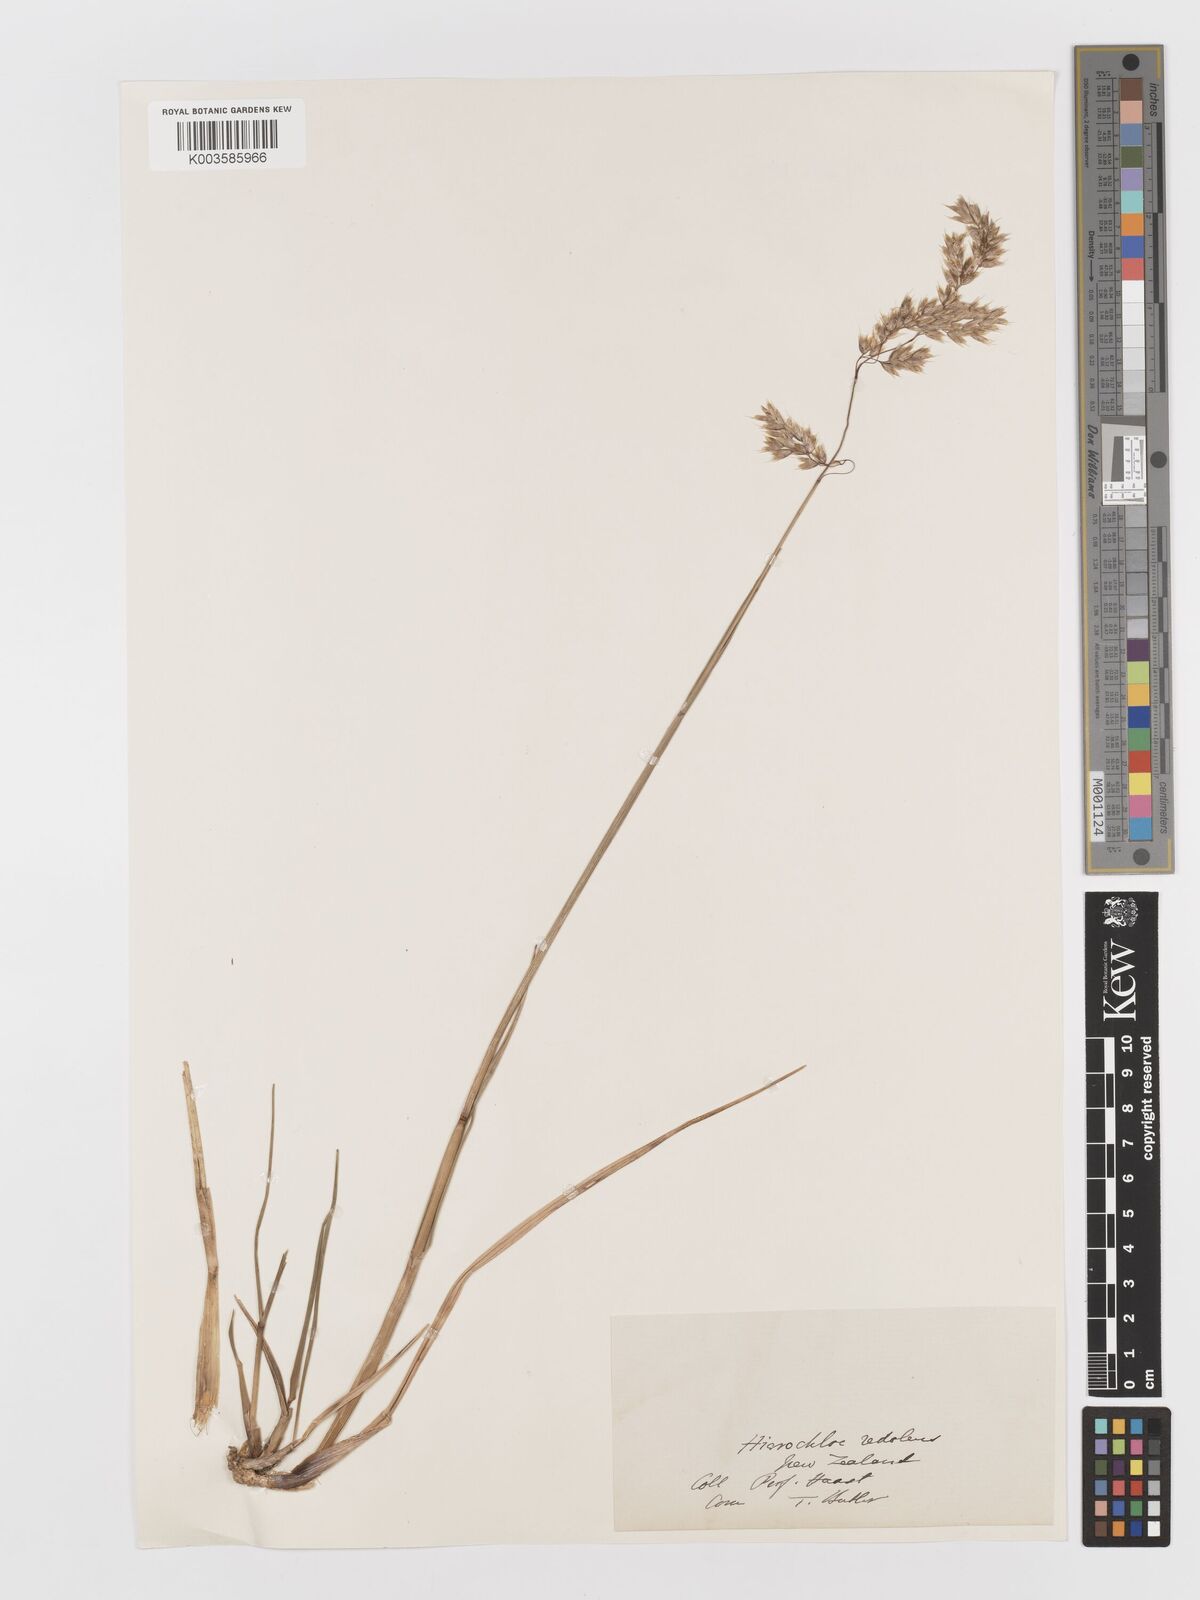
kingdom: Plantae
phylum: Tracheophyta
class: Liliopsida
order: Poales
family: Poaceae
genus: Anthoxanthum
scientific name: Anthoxanthum redolens
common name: Sweet holy grass
